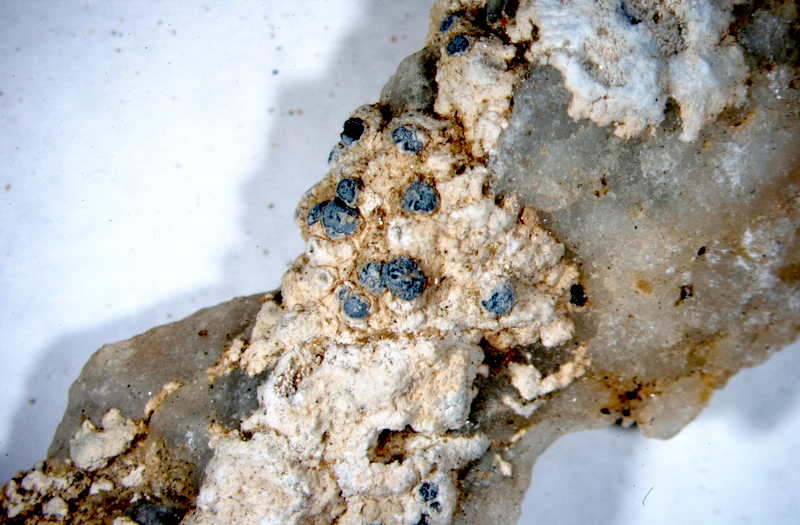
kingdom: Fungi
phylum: Ascomycota
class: Lecanoromycetes
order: Caliciales
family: Caliciaceae
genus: Buellia
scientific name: Buellia
